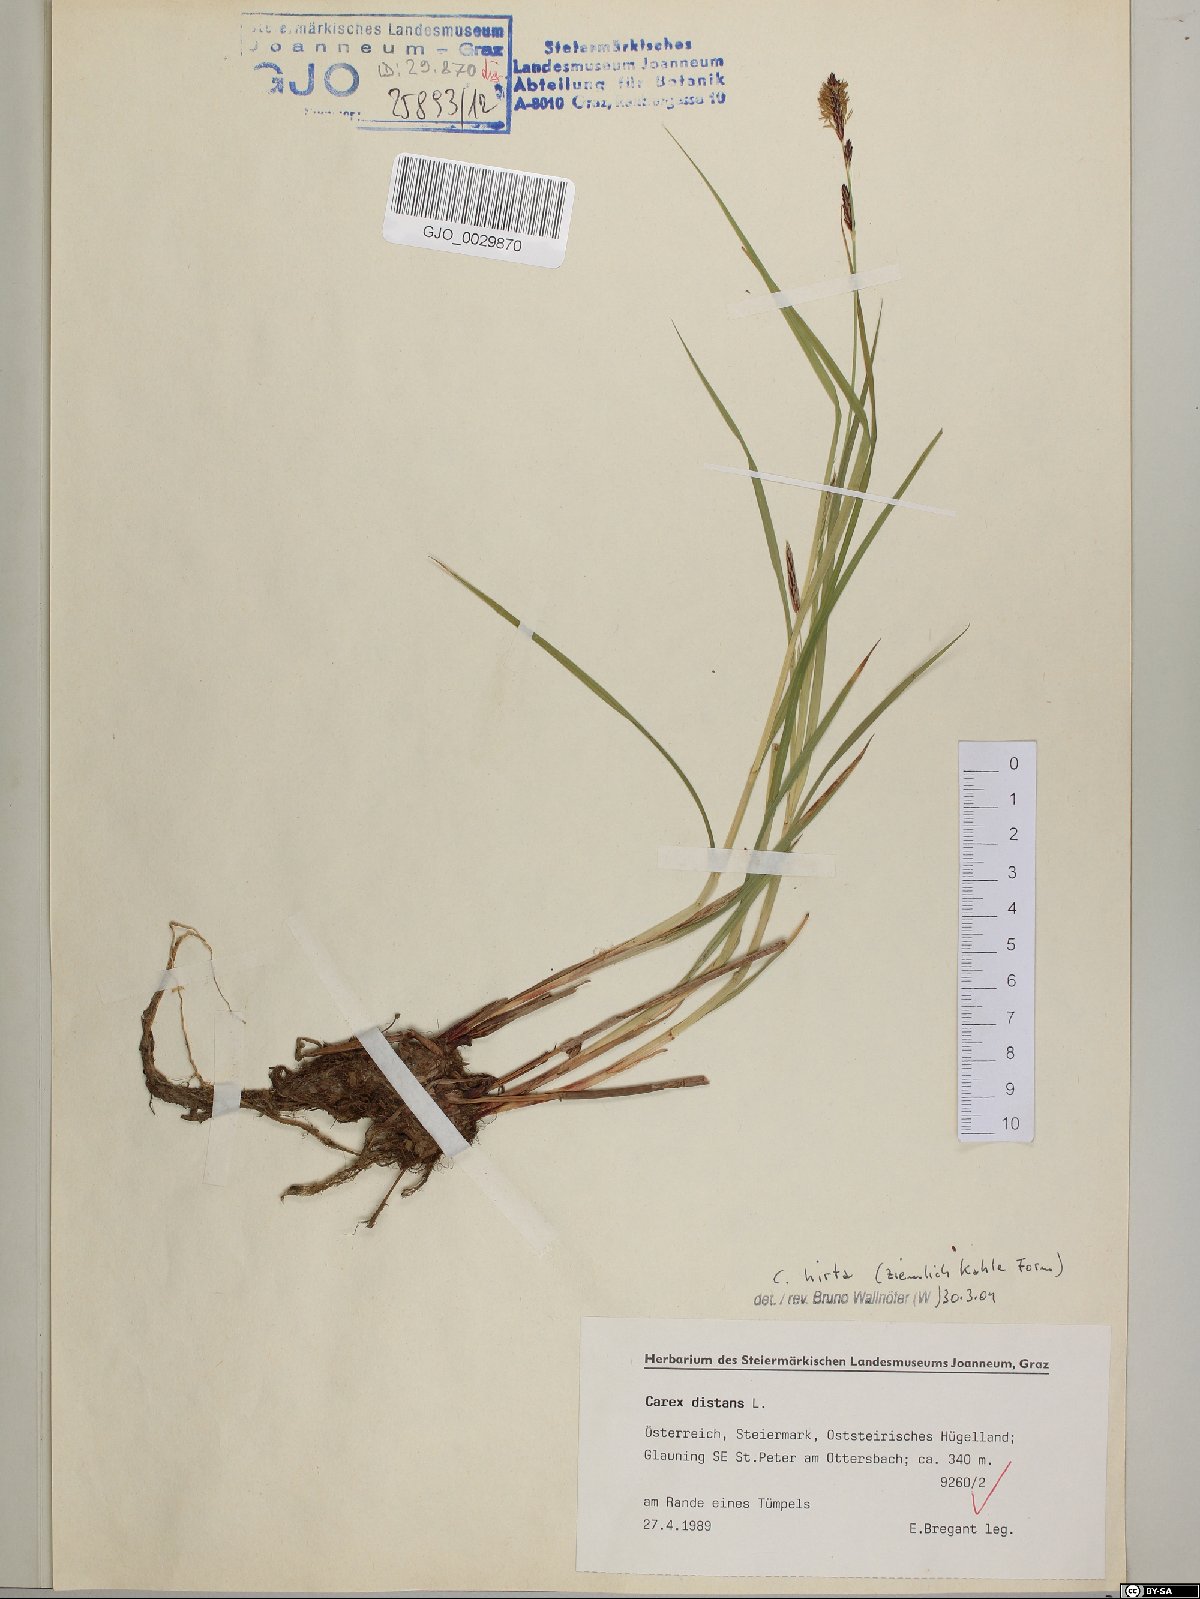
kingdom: Plantae
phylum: Tracheophyta
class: Liliopsida
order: Poales
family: Cyperaceae
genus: Carex
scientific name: Carex hirta
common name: Hairy sedge
